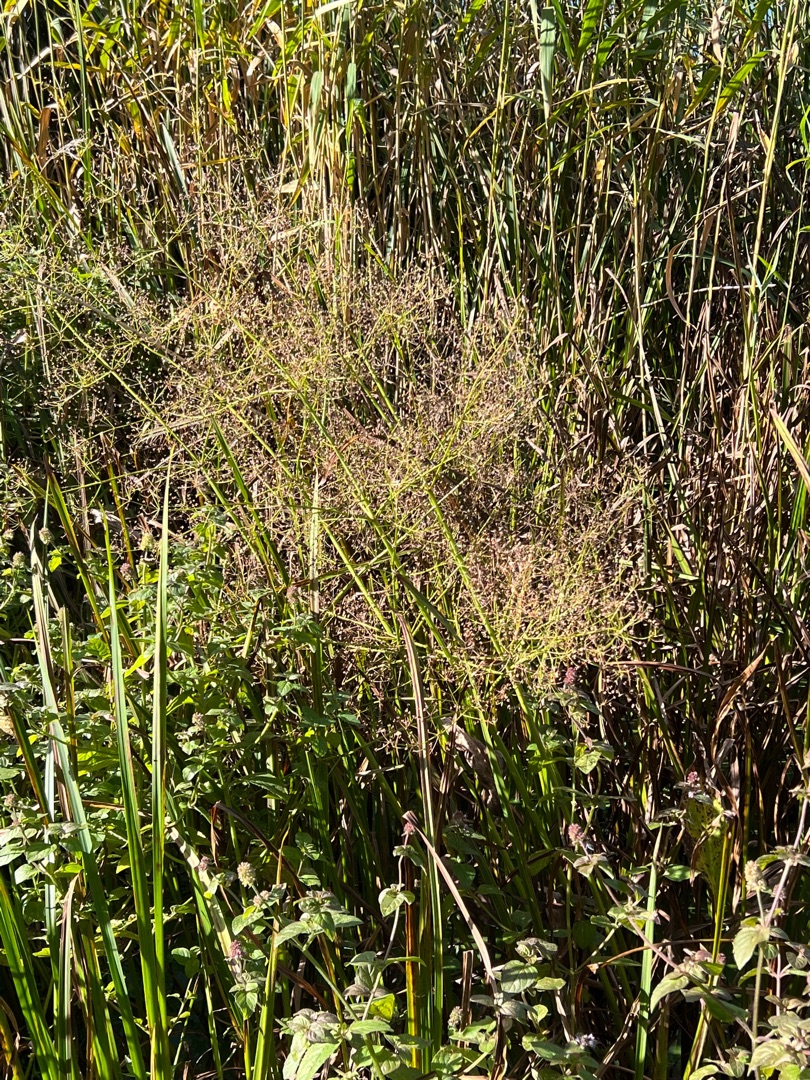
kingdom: Plantae
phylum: Tracheophyta
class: Liliopsida
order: Alismatales
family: Alismataceae
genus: Alisma
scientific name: Alisma plantago-aquatica
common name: Vejbred-skeblad
